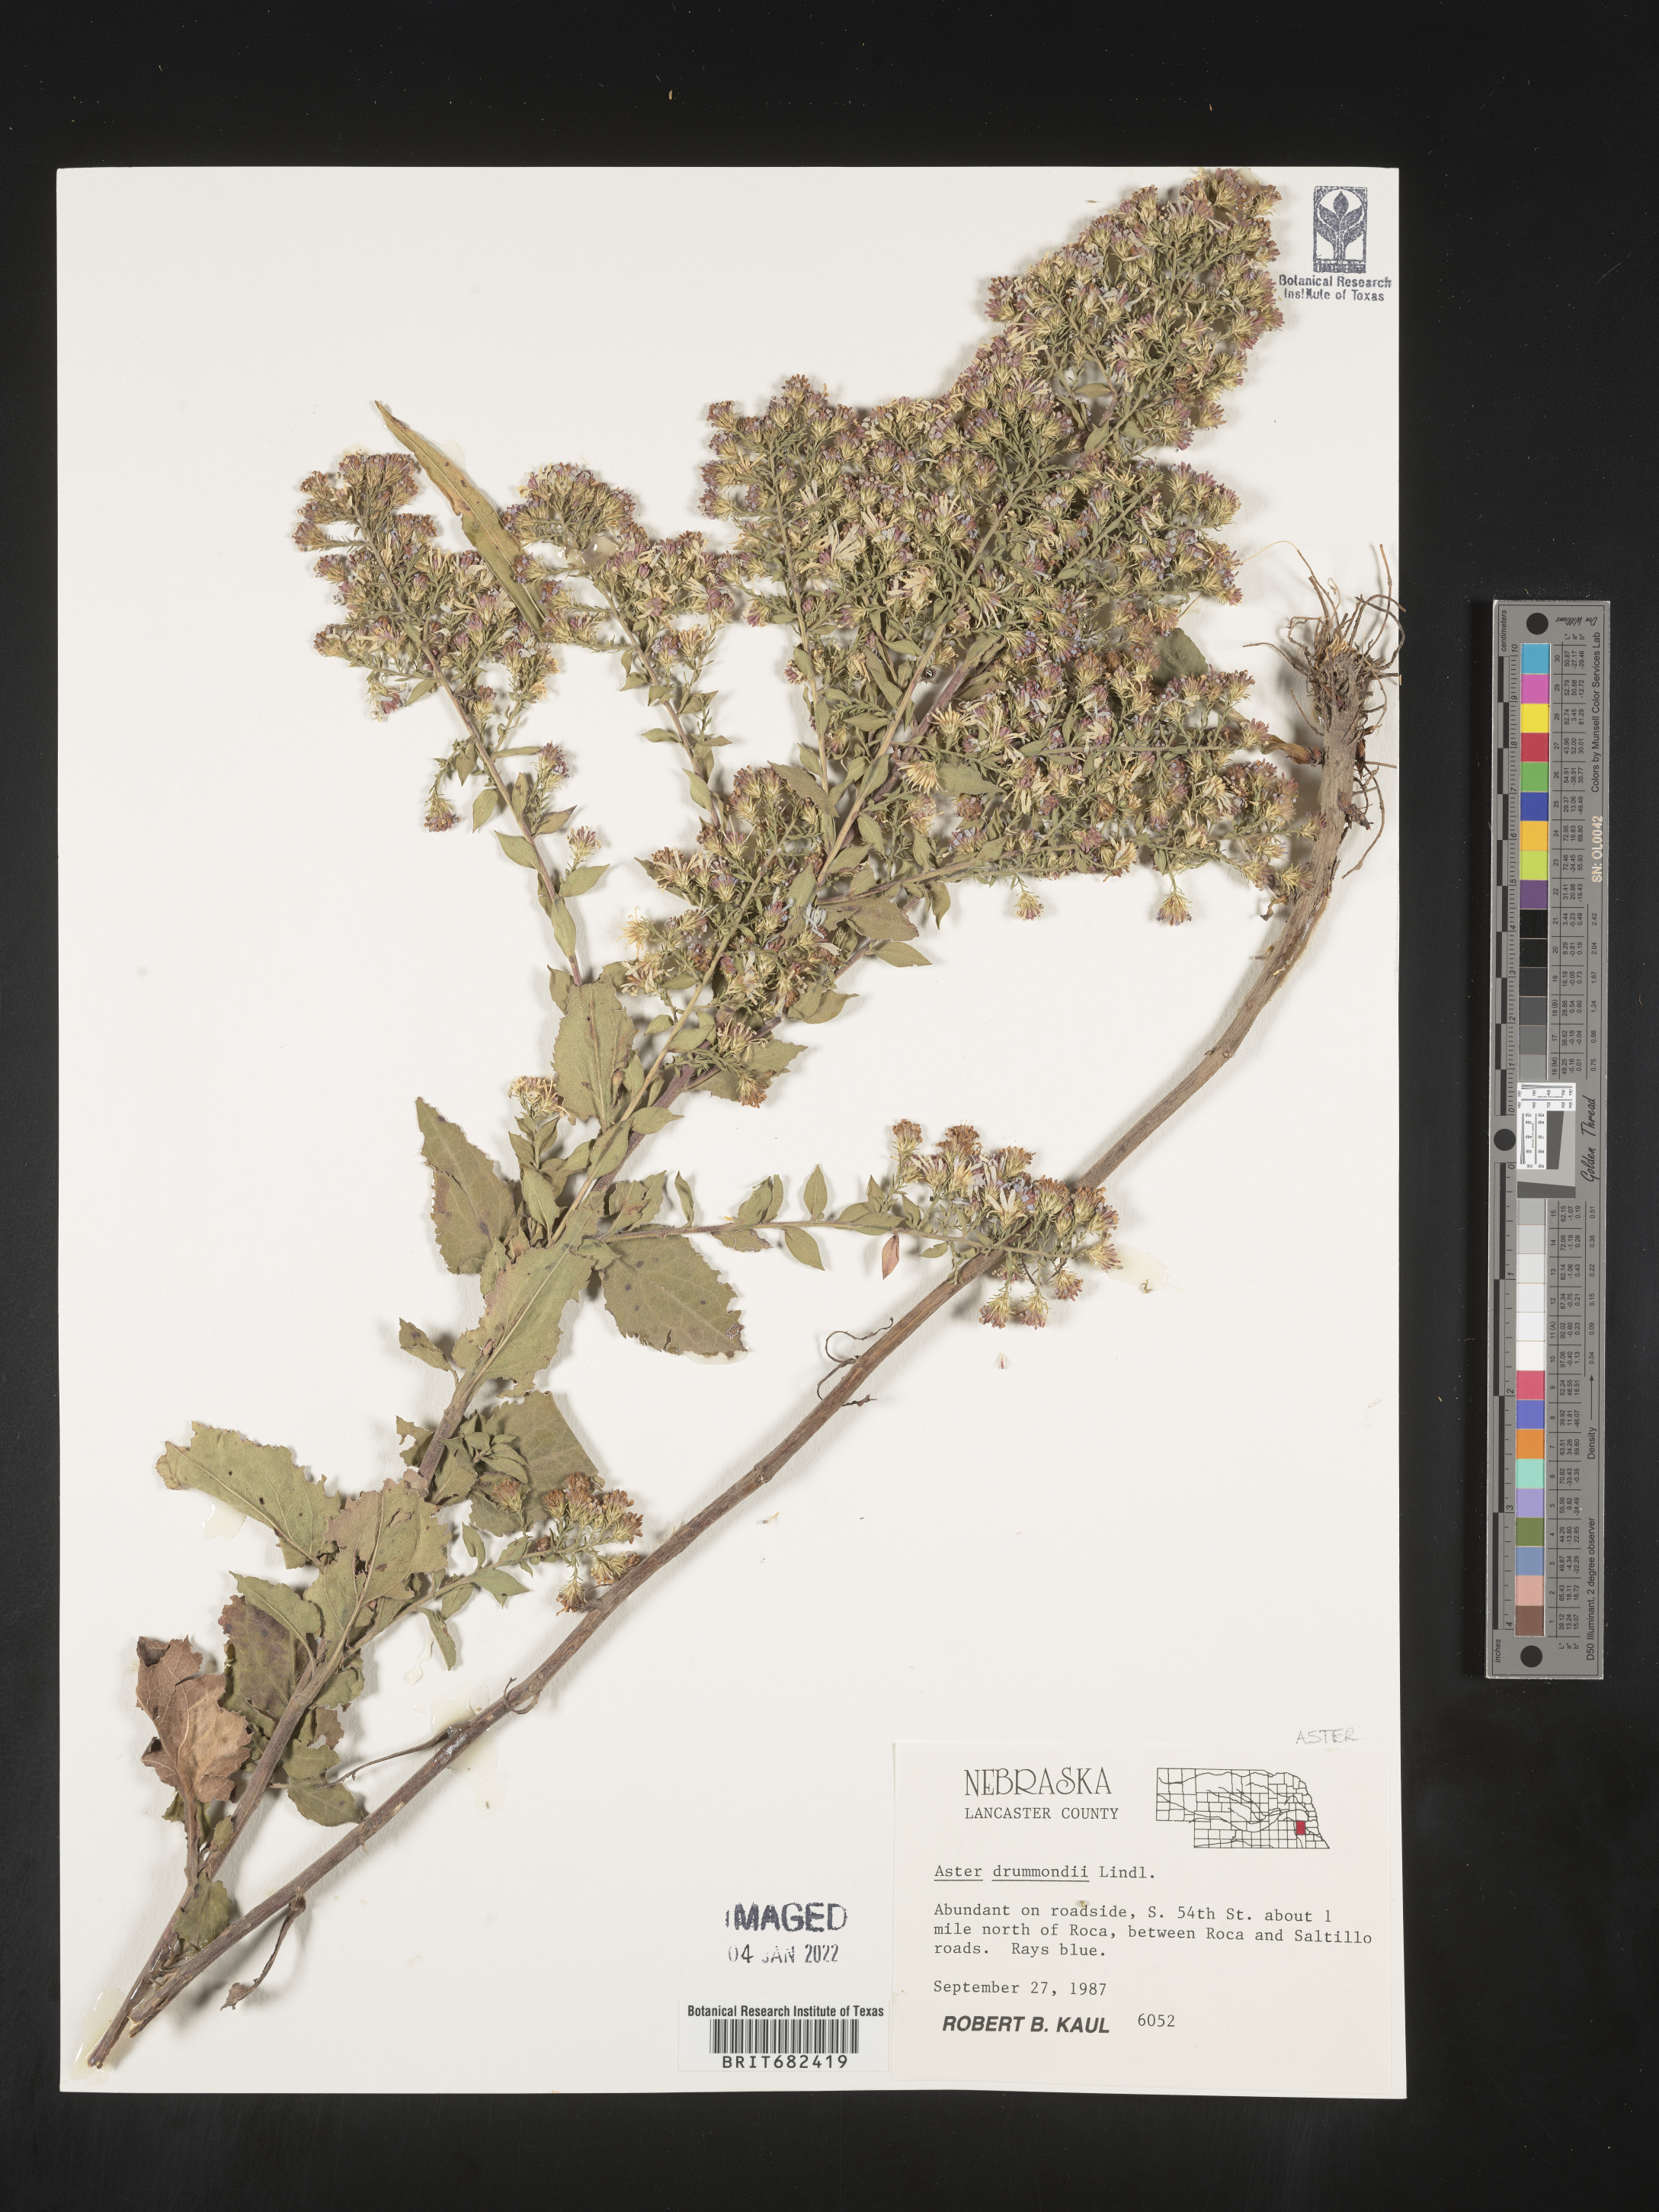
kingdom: Plantae
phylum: Tracheophyta
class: Magnoliopsida
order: Asterales
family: Asteraceae
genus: Aster
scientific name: Aster
